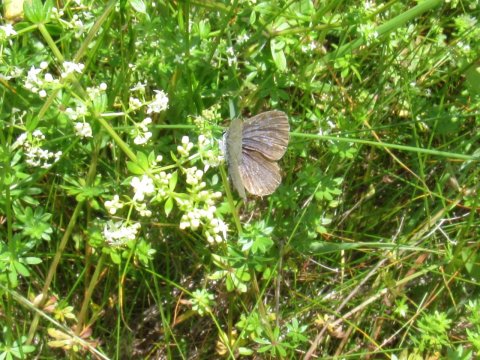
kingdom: Animalia
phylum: Arthropoda
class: Insecta
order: Lepidoptera
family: Lycaenidae
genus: Elkalyce
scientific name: Elkalyce comyntas
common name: Eastern Tailed-Blue
